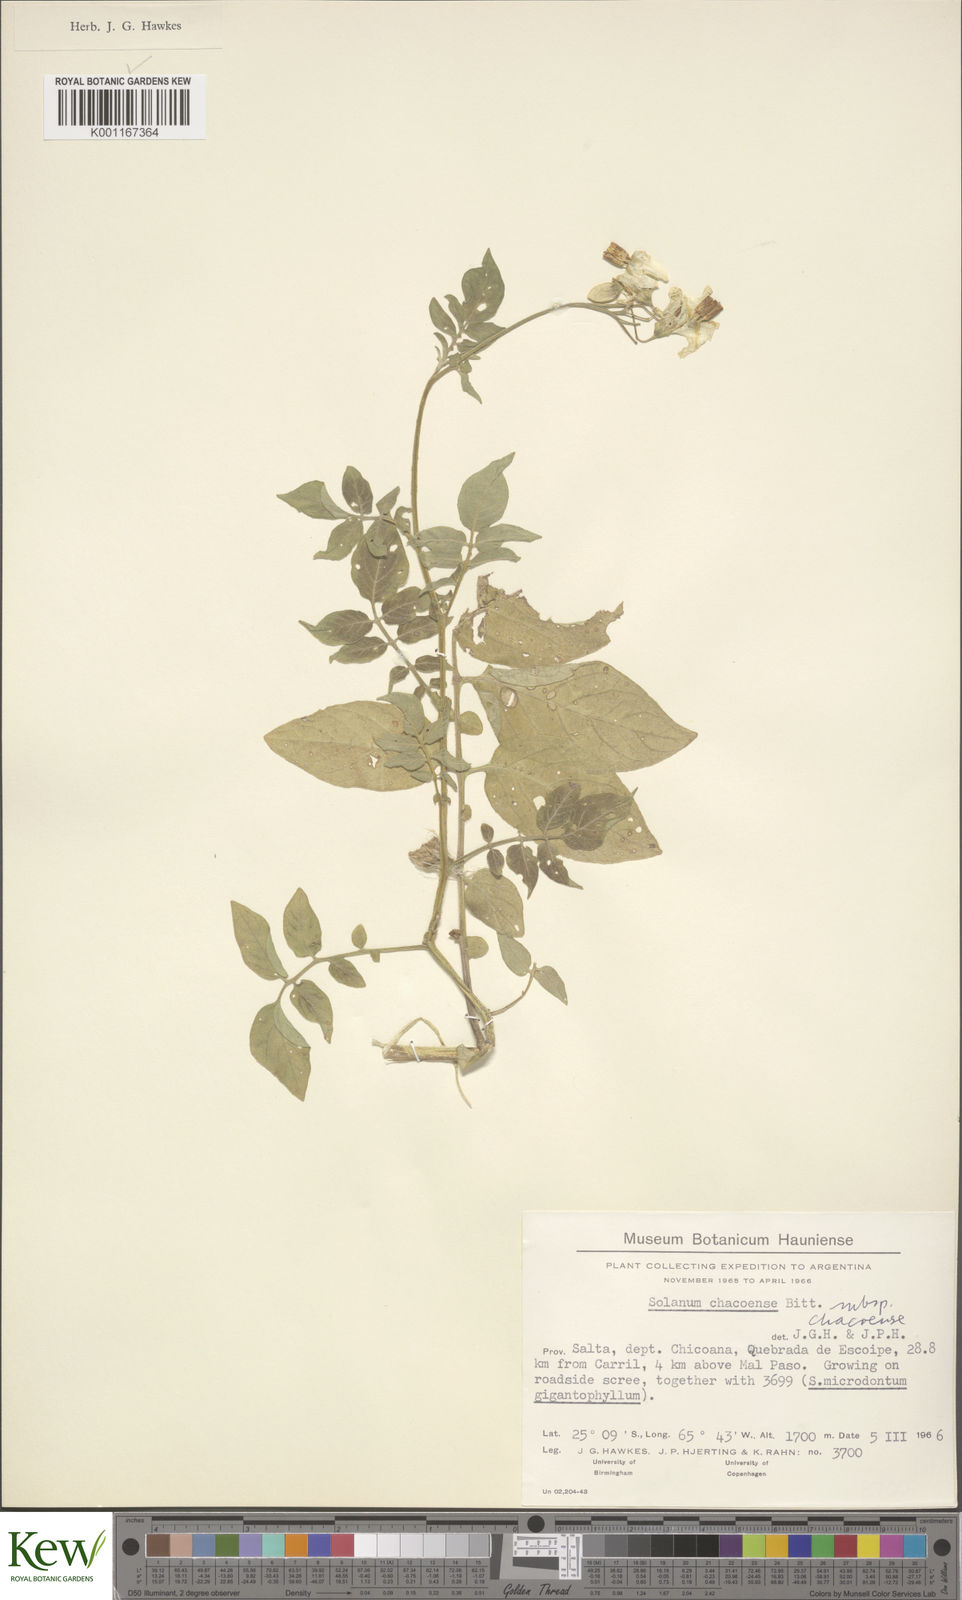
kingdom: Plantae
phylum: Tracheophyta
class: Magnoliopsida
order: Solanales
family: Solanaceae
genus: Solanum
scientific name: Solanum chacoense
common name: Chaco potato
